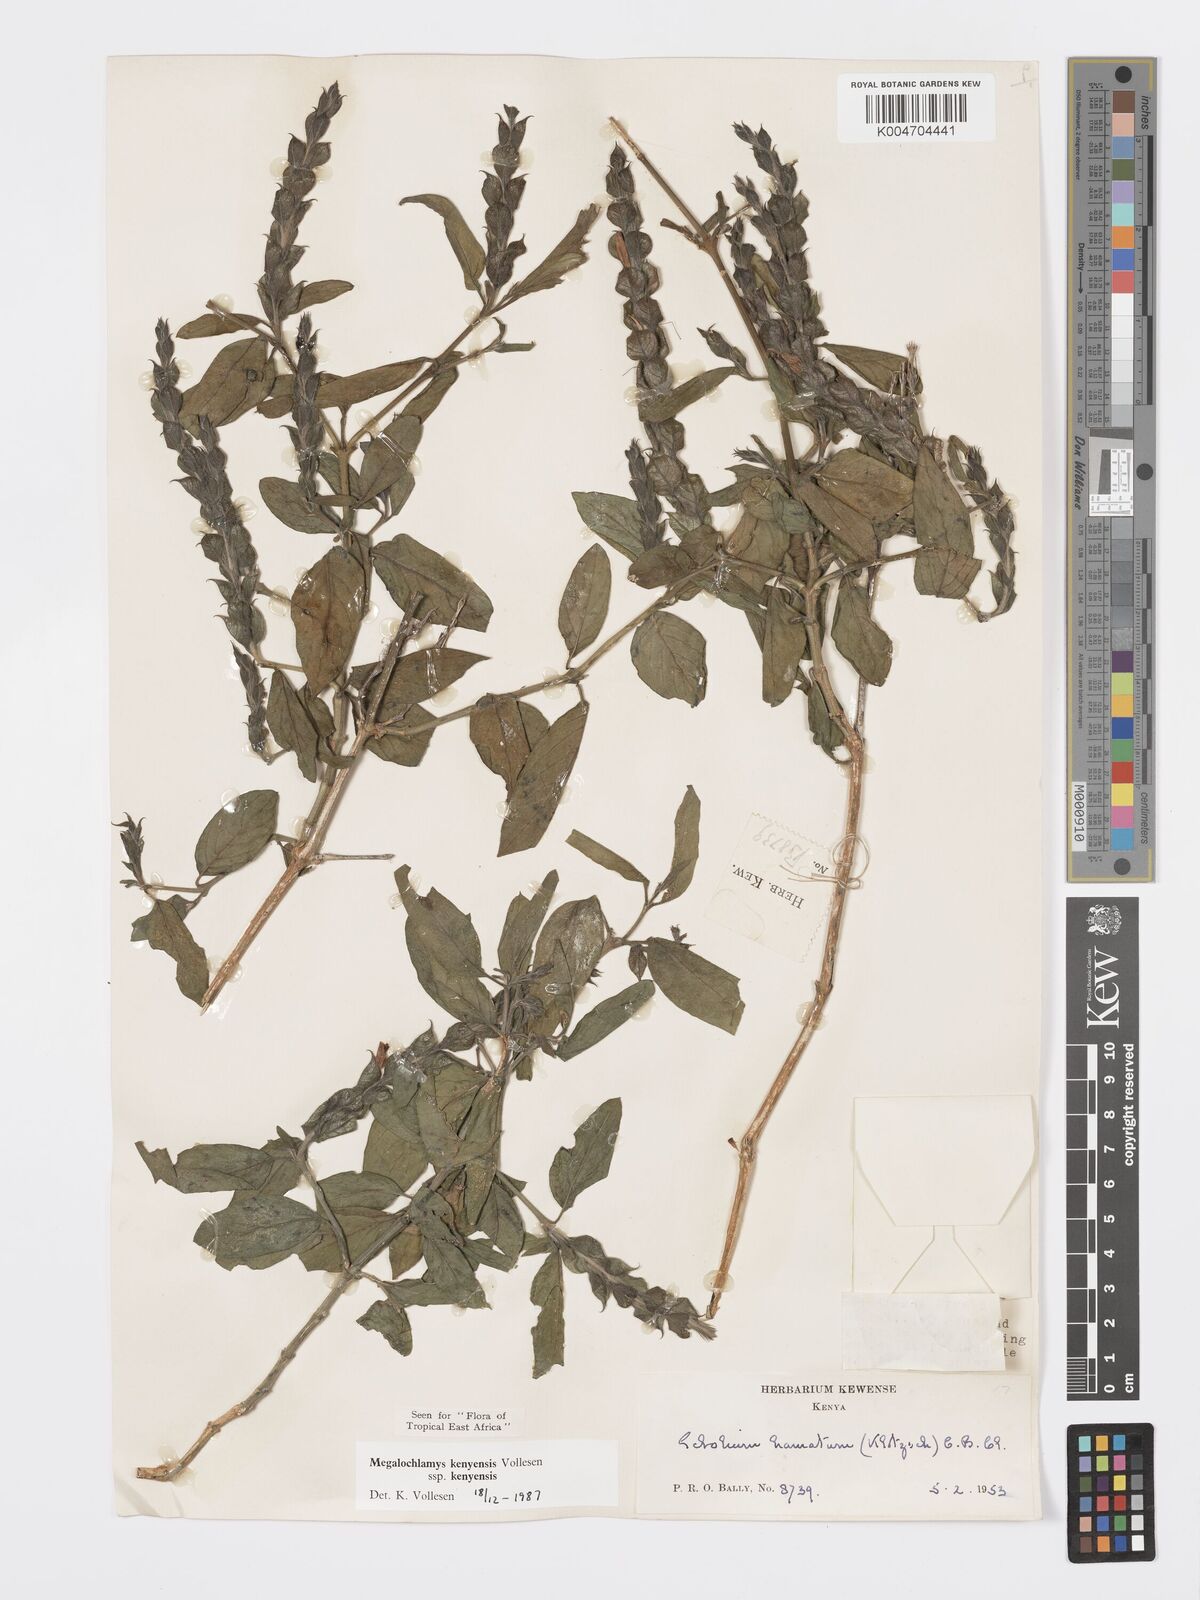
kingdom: Plantae
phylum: Tracheophyta
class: Magnoliopsida
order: Lamiales
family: Acanthaceae
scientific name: Acanthaceae
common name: Acanthaceae
